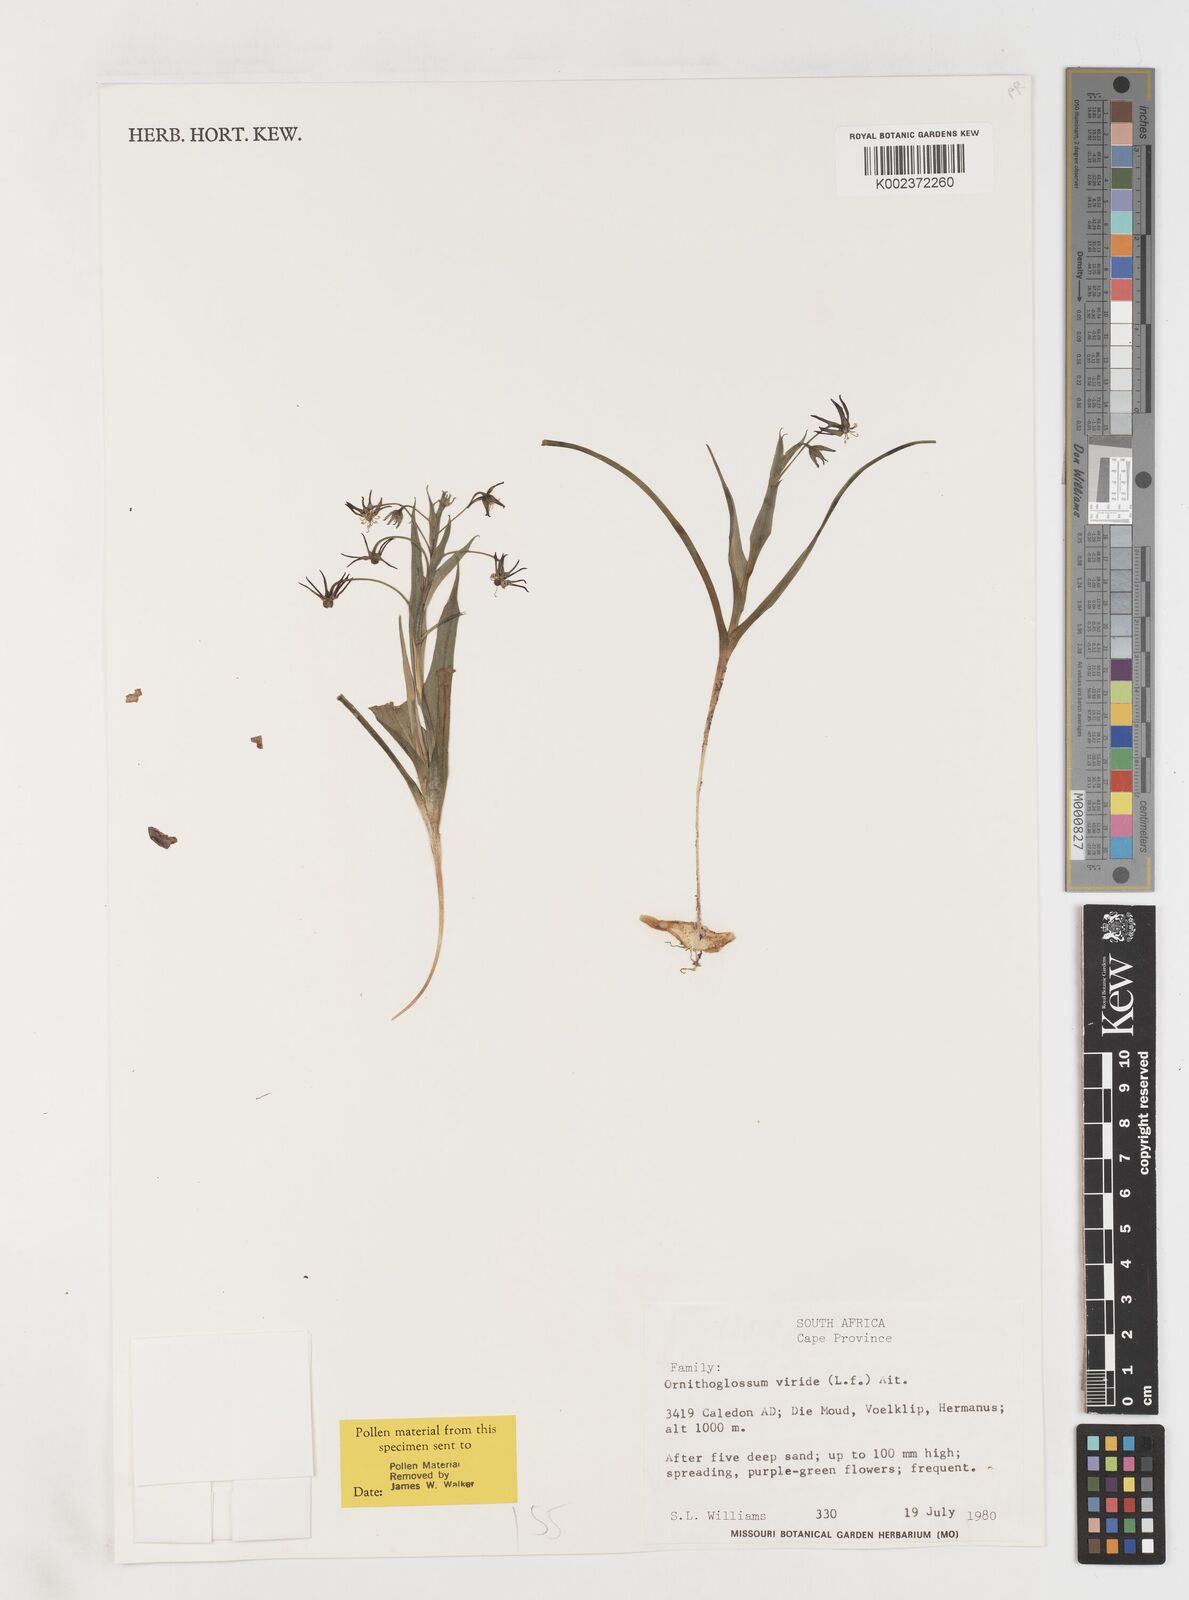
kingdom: Plantae
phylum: Tracheophyta
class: Liliopsida
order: Liliales
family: Colchicaceae
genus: Ornithoglossum
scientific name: Ornithoglossum viride
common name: Cape poison-onion
